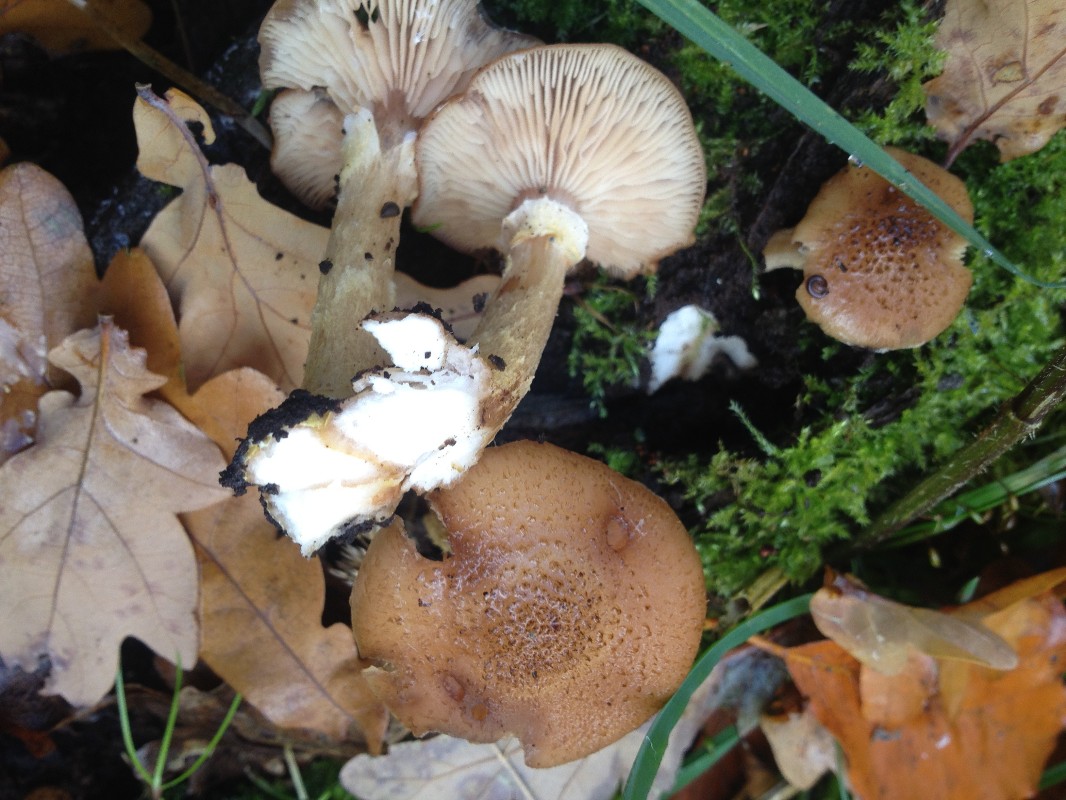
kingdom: Fungi
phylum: Basidiomycota
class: Agaricomycetes
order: Agaricales
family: Physalacriaceae
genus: Armillaria
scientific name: Armillaria mellea
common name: ægte honningsvamp
